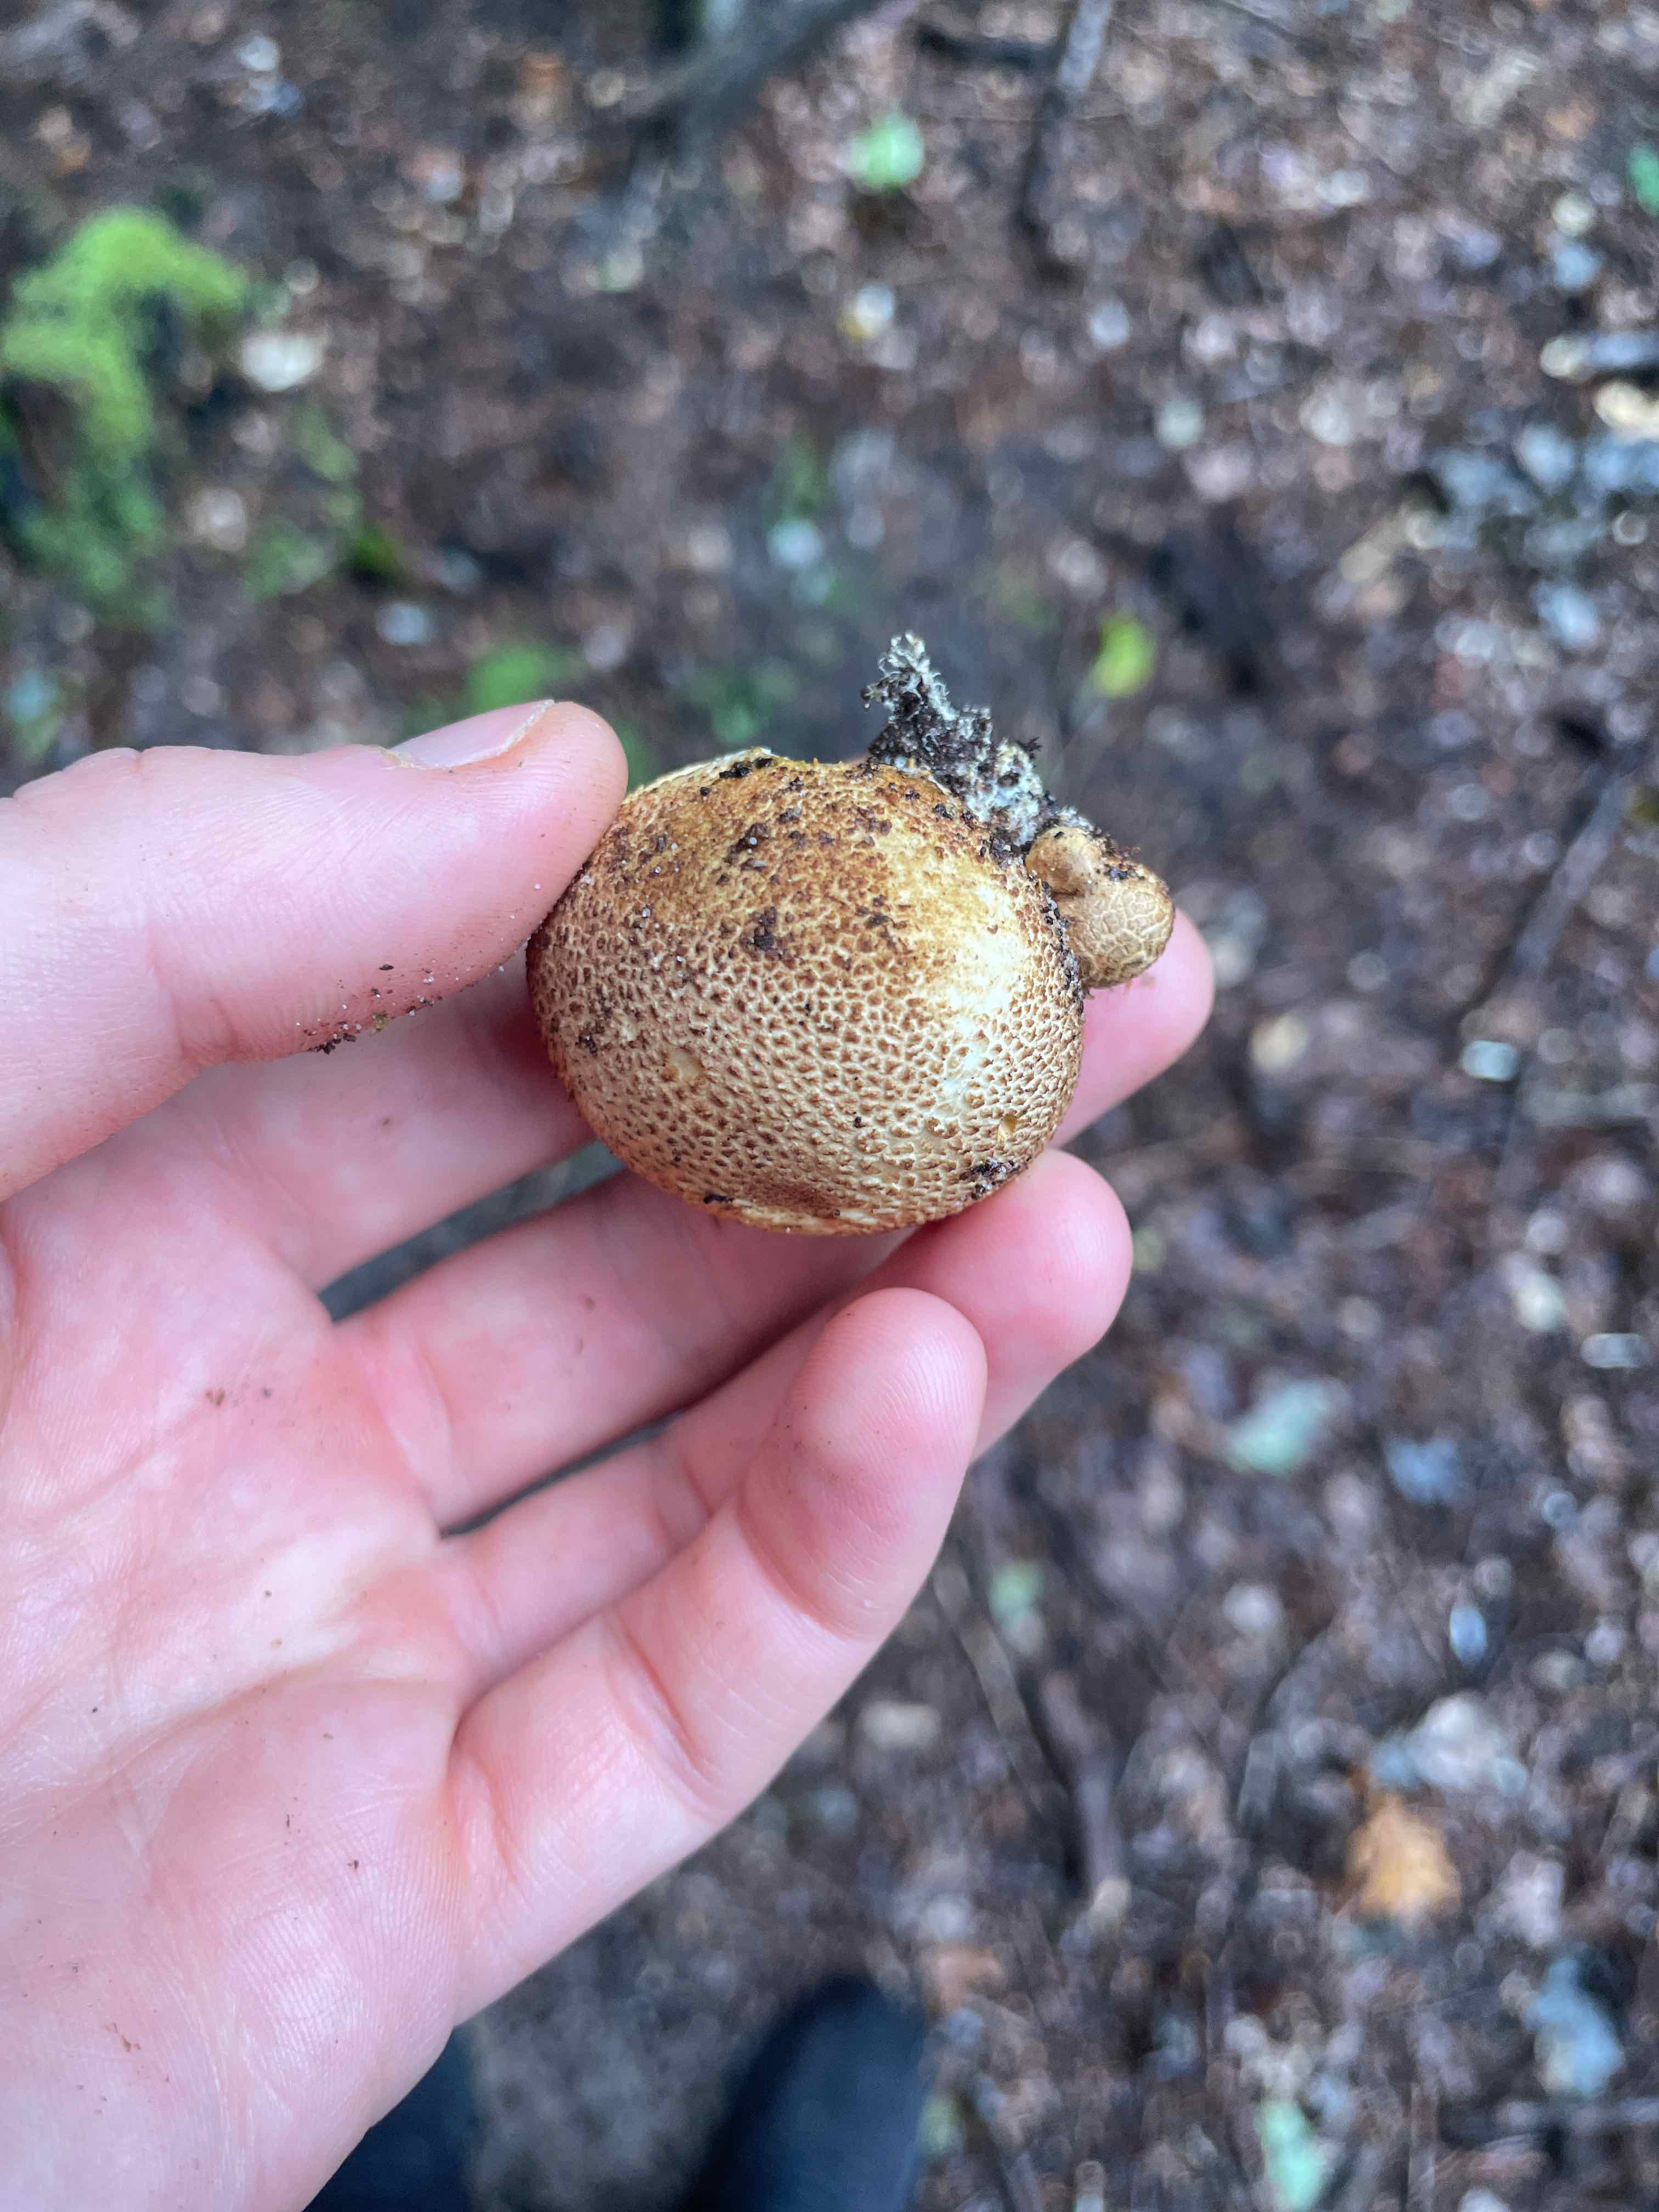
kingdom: Fungi
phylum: Basidiomycota
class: Agaricomycetes
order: Boletales
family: Sclerodermataceae
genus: Scleroderma
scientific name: Scleroderma citrinum
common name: almindelig bruskbold
